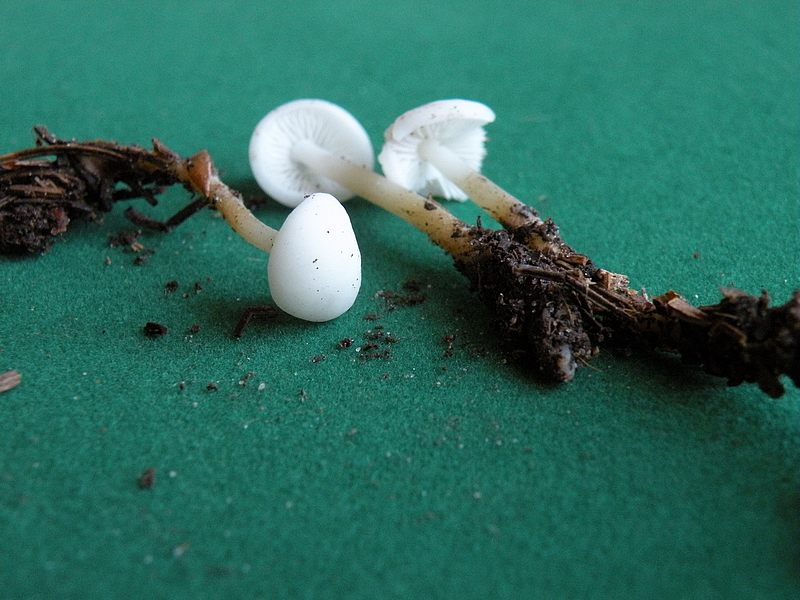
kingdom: Fungi
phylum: Basidiomycota
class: Agaricomycetes
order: Agaricales
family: Physalacriaceae
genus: Strobilurus
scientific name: Strobilurus esculentus
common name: gran-koglehat
